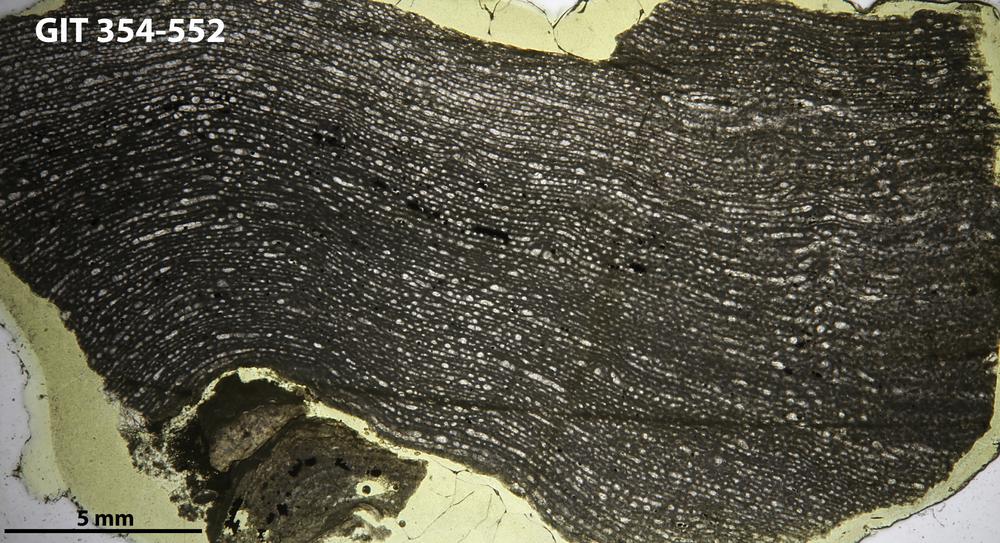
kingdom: Animalia
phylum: Porifera
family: Clathrodictyidae
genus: Clathrodictyon
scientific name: Clathrodictyon Stromatopora variolaris
